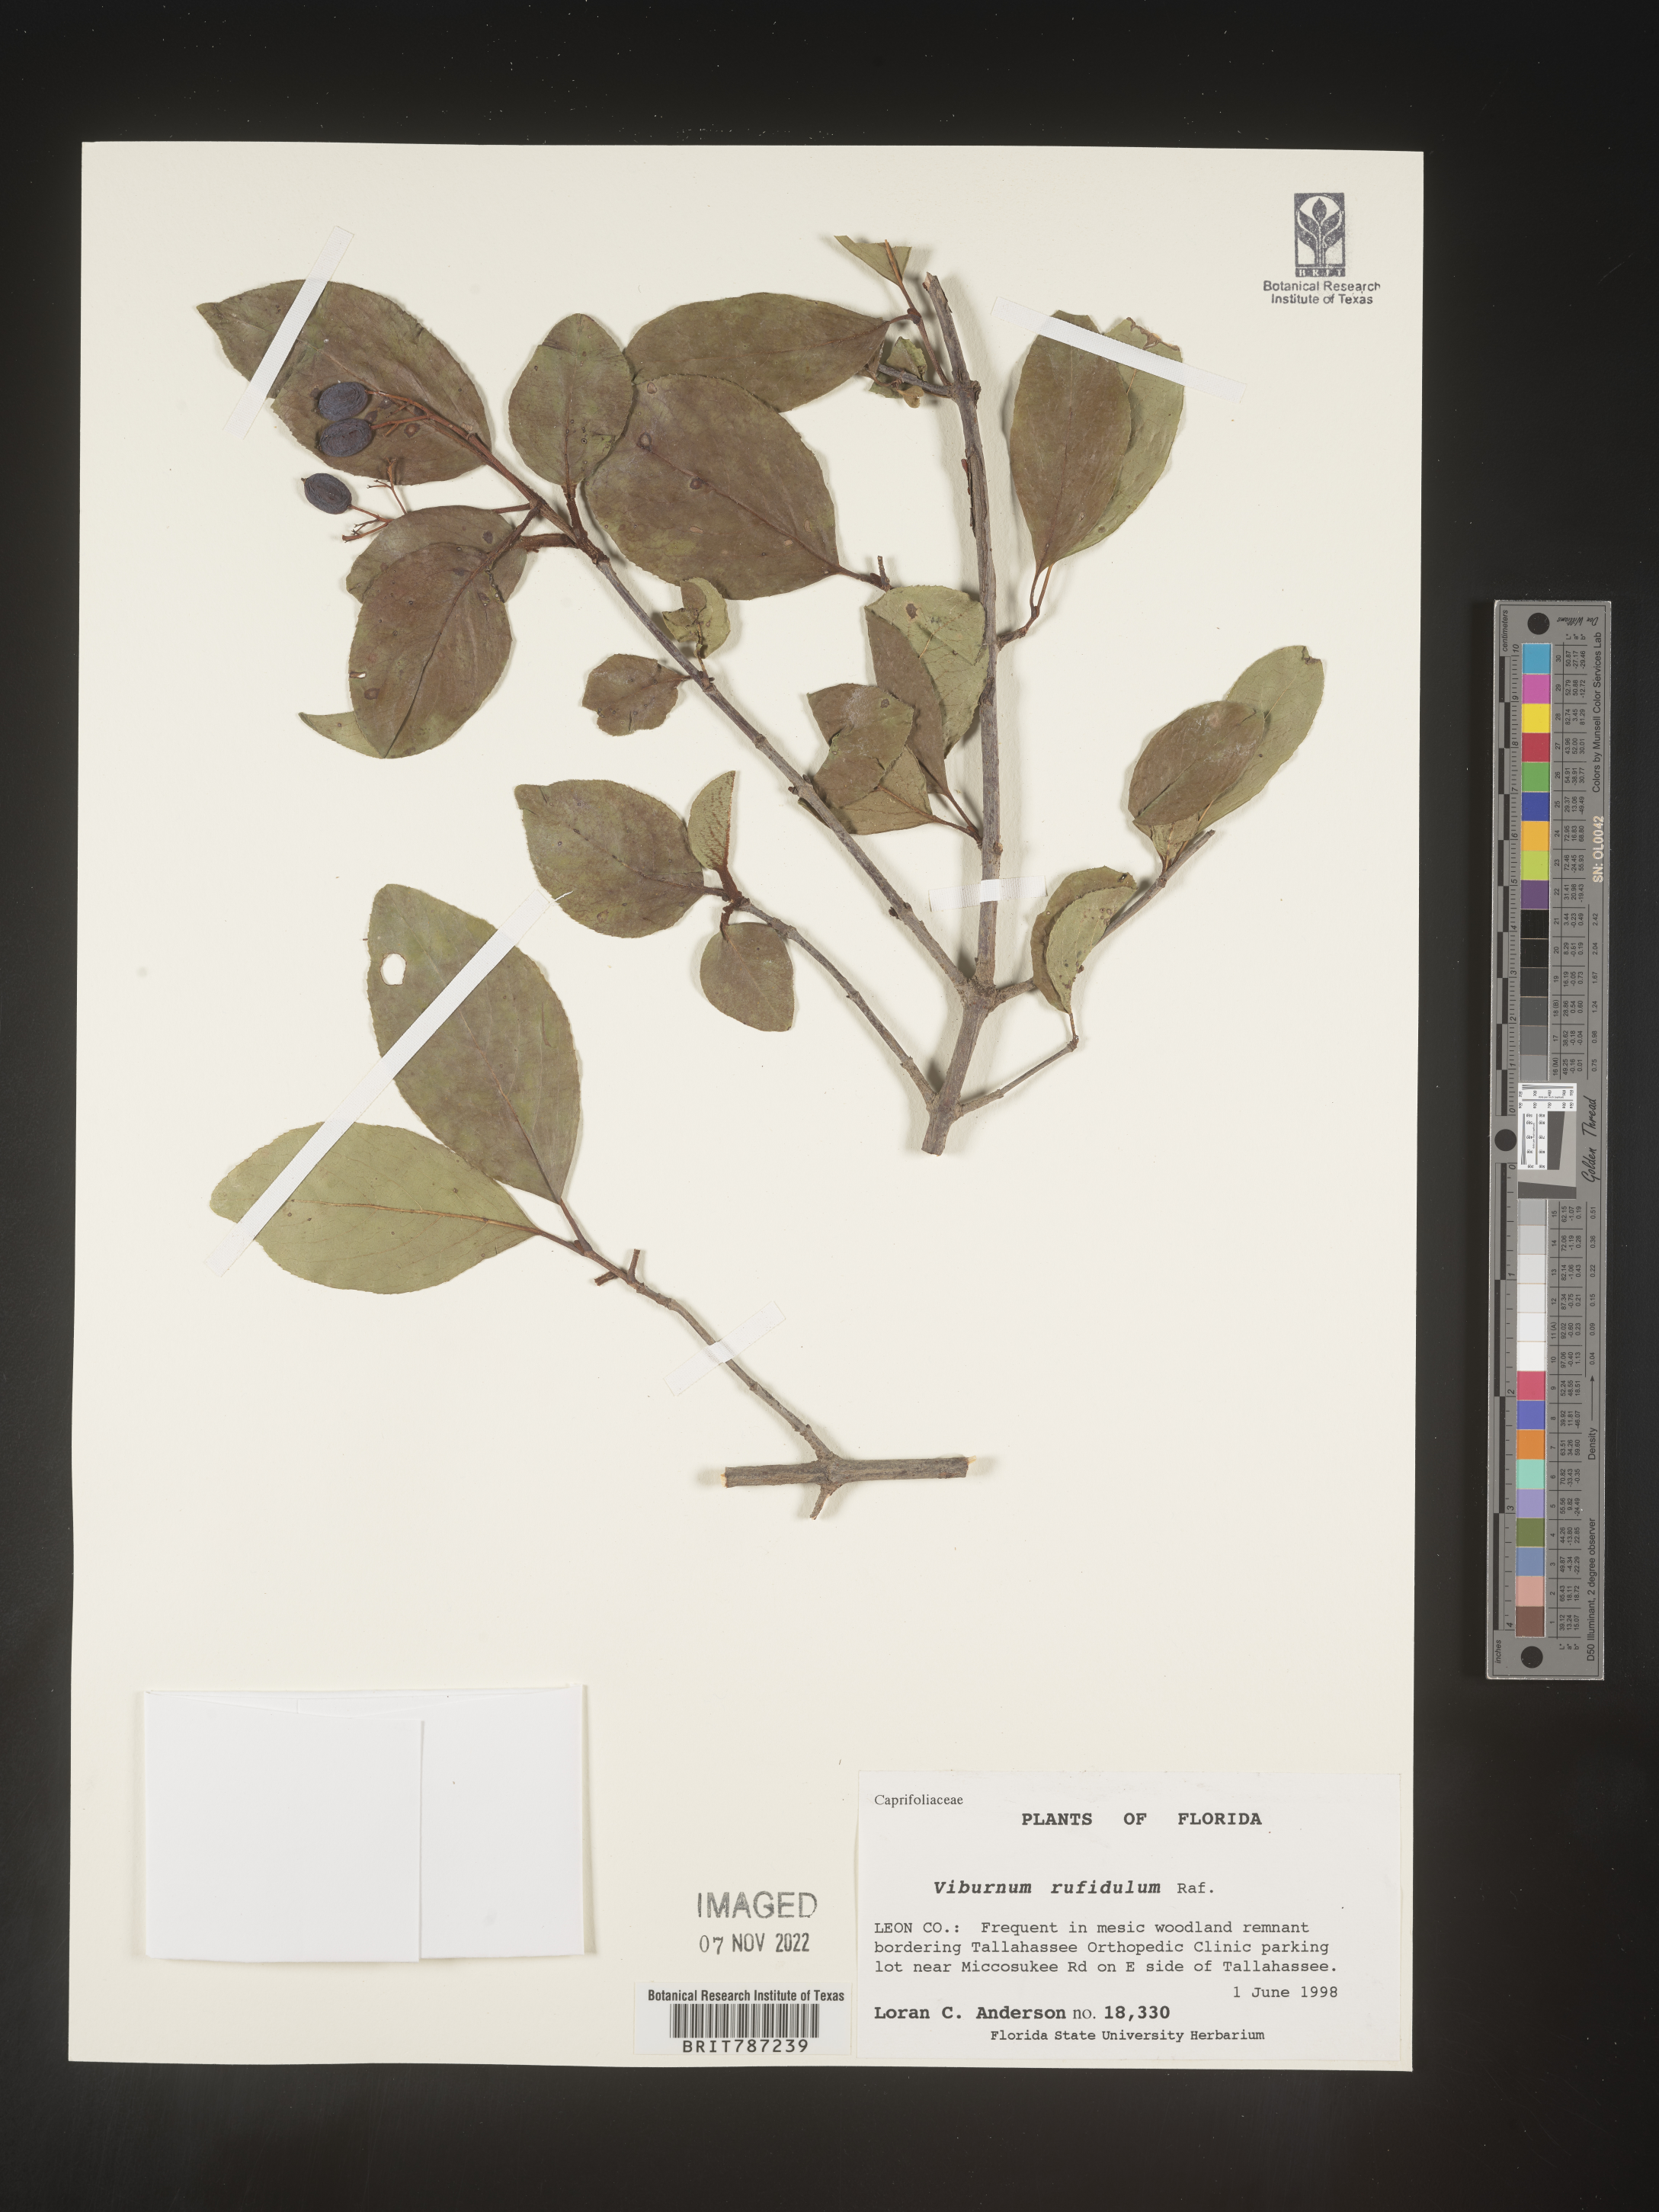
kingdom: Plantae
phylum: Tracheophyta
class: Magnoliopsida
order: Dipsacales
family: Viburnaceae
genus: Viburnum
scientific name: Viburnum rufidulum
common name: Blue haw
